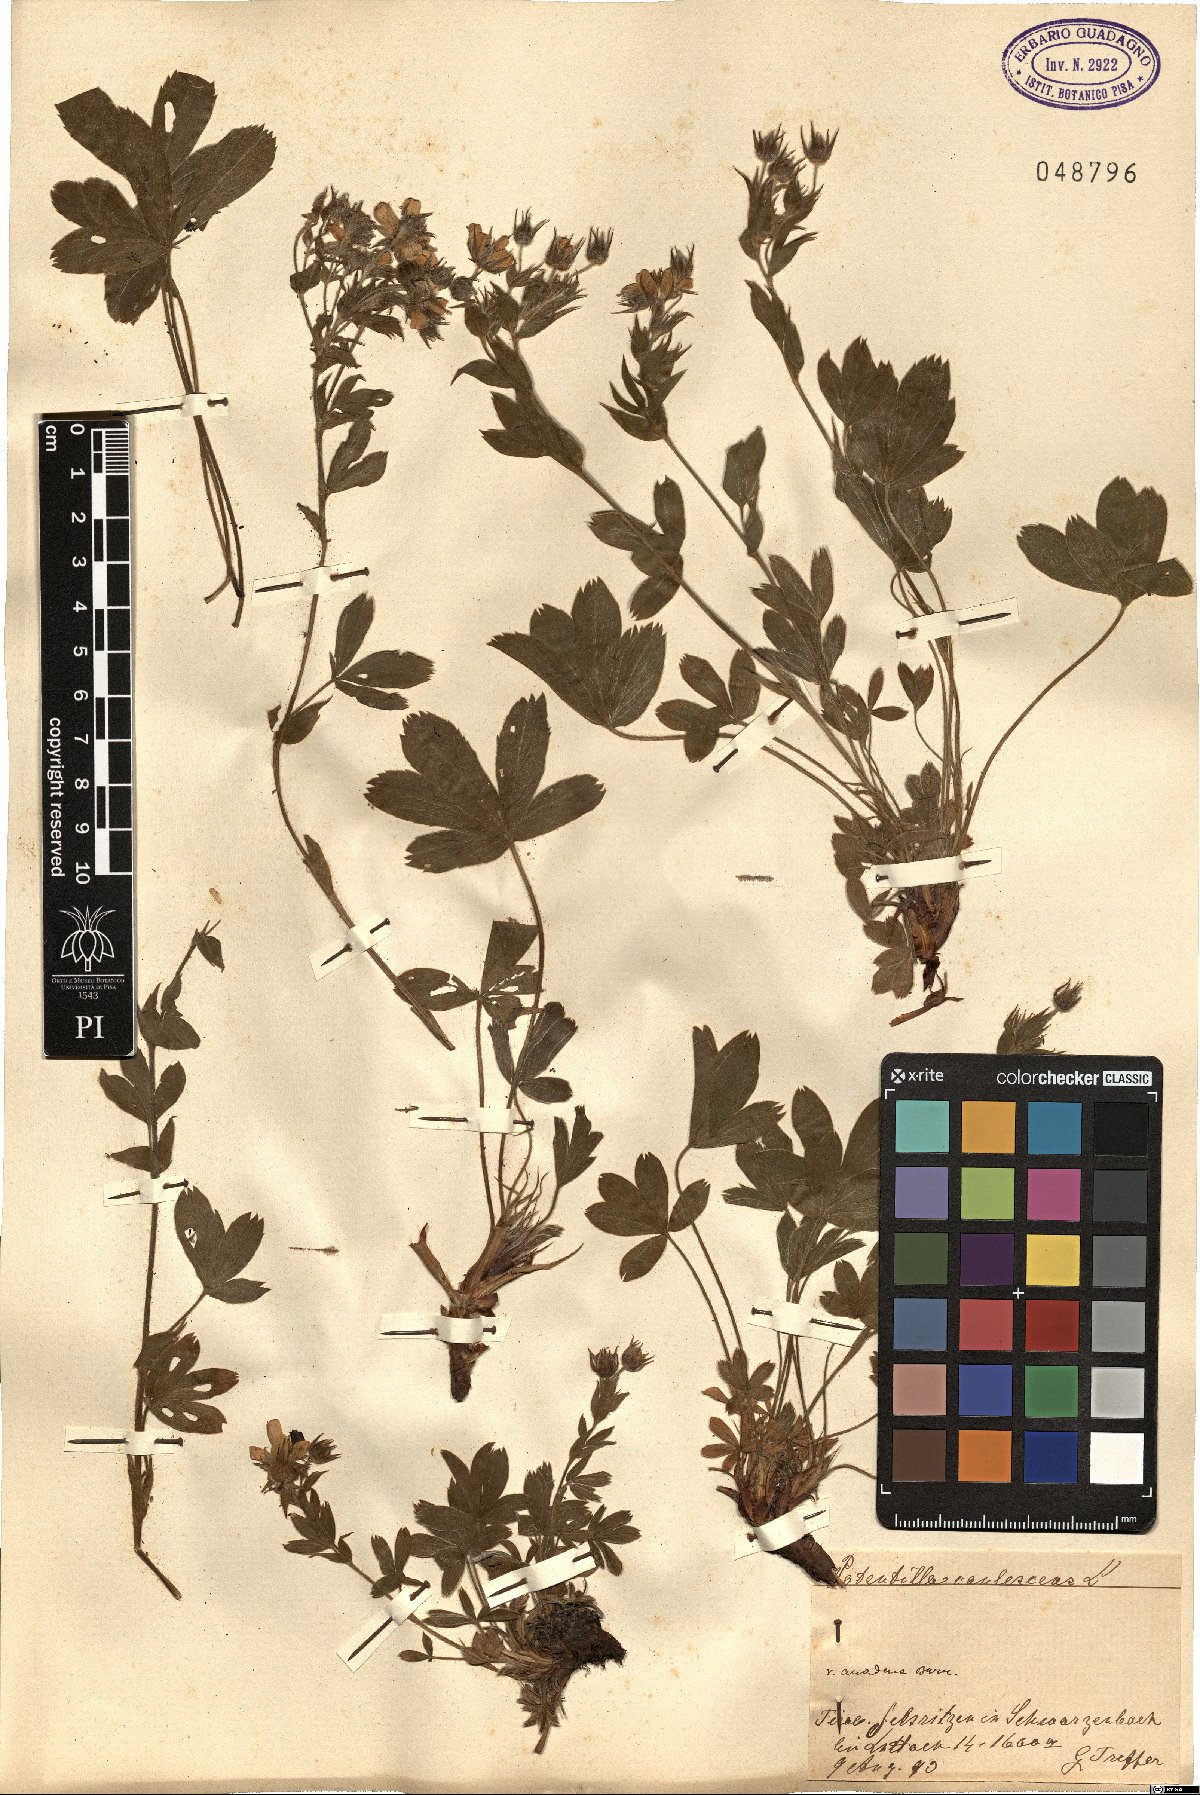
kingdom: Plantae
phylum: Tracheophyta
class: Magnoliopsida
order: Rosales
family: Rosaceae
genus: Potentilla
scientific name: Potentilla caulescens
